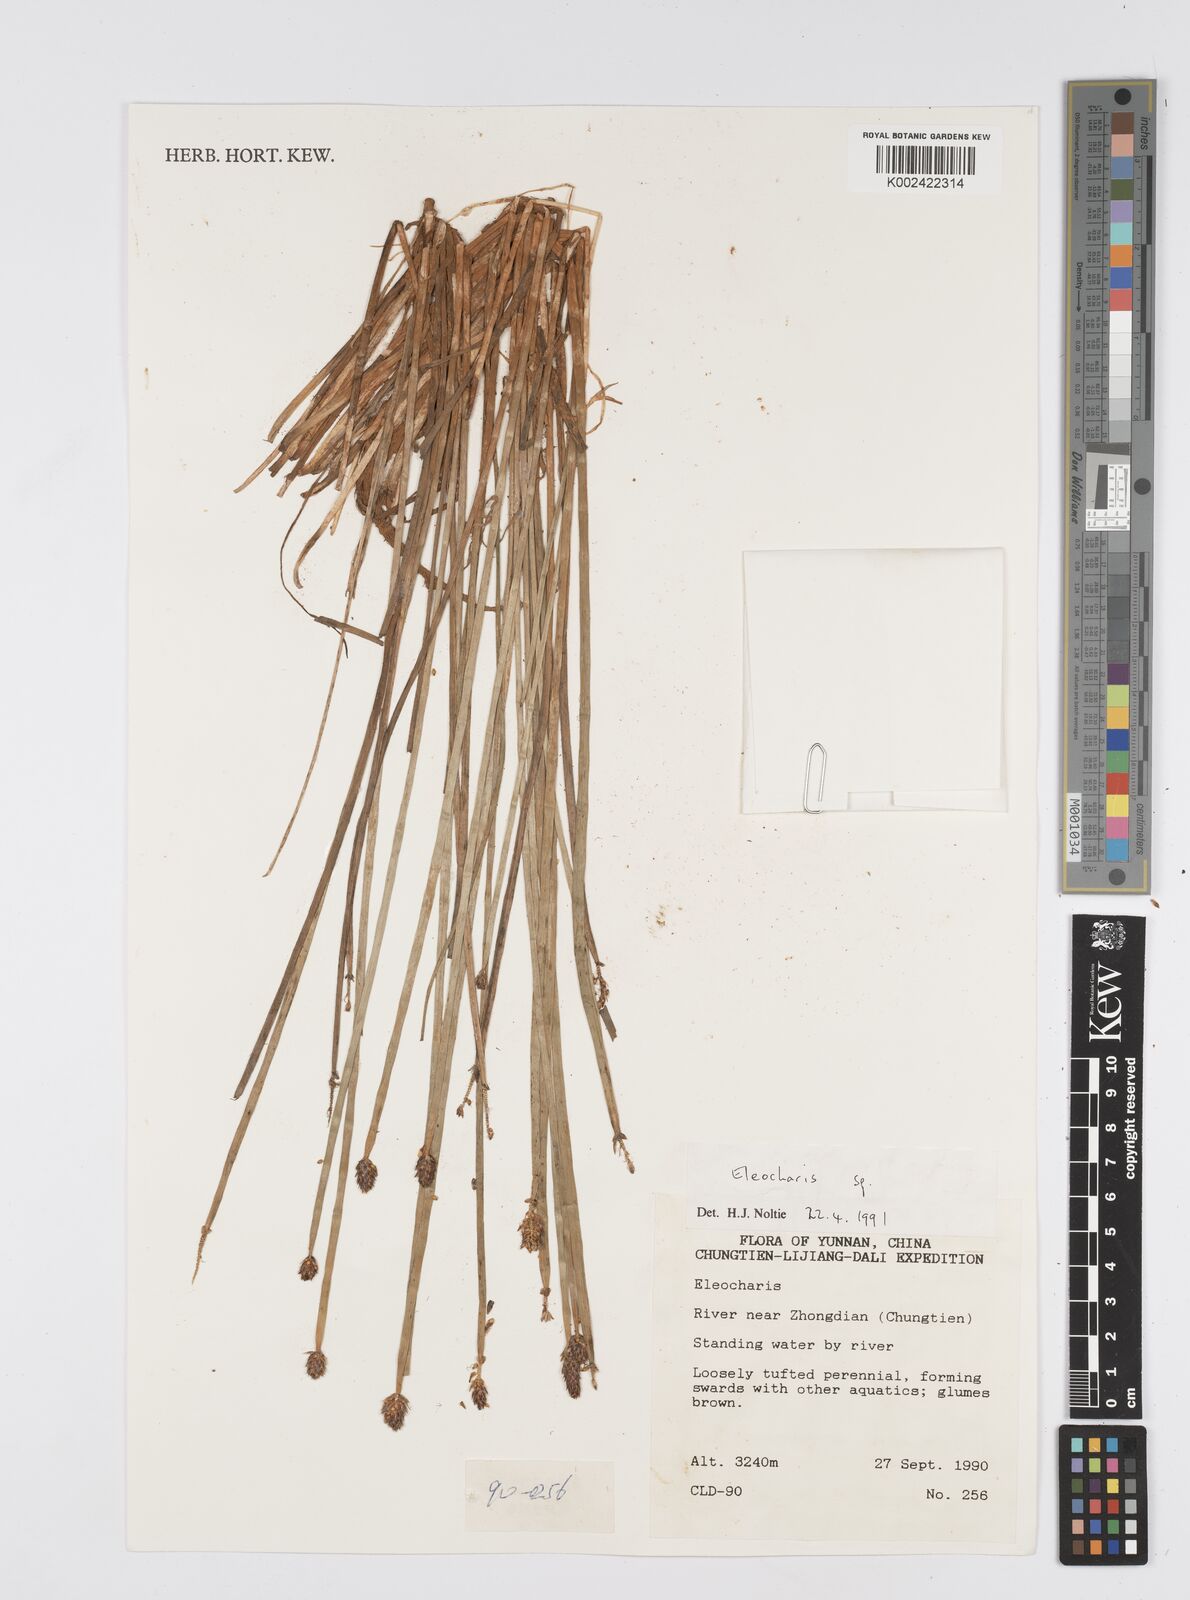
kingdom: Plantae
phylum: Tracheophyta
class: Liliopsida
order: Poales
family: Cyperaceae
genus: Eleocharis
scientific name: Eleocharis
